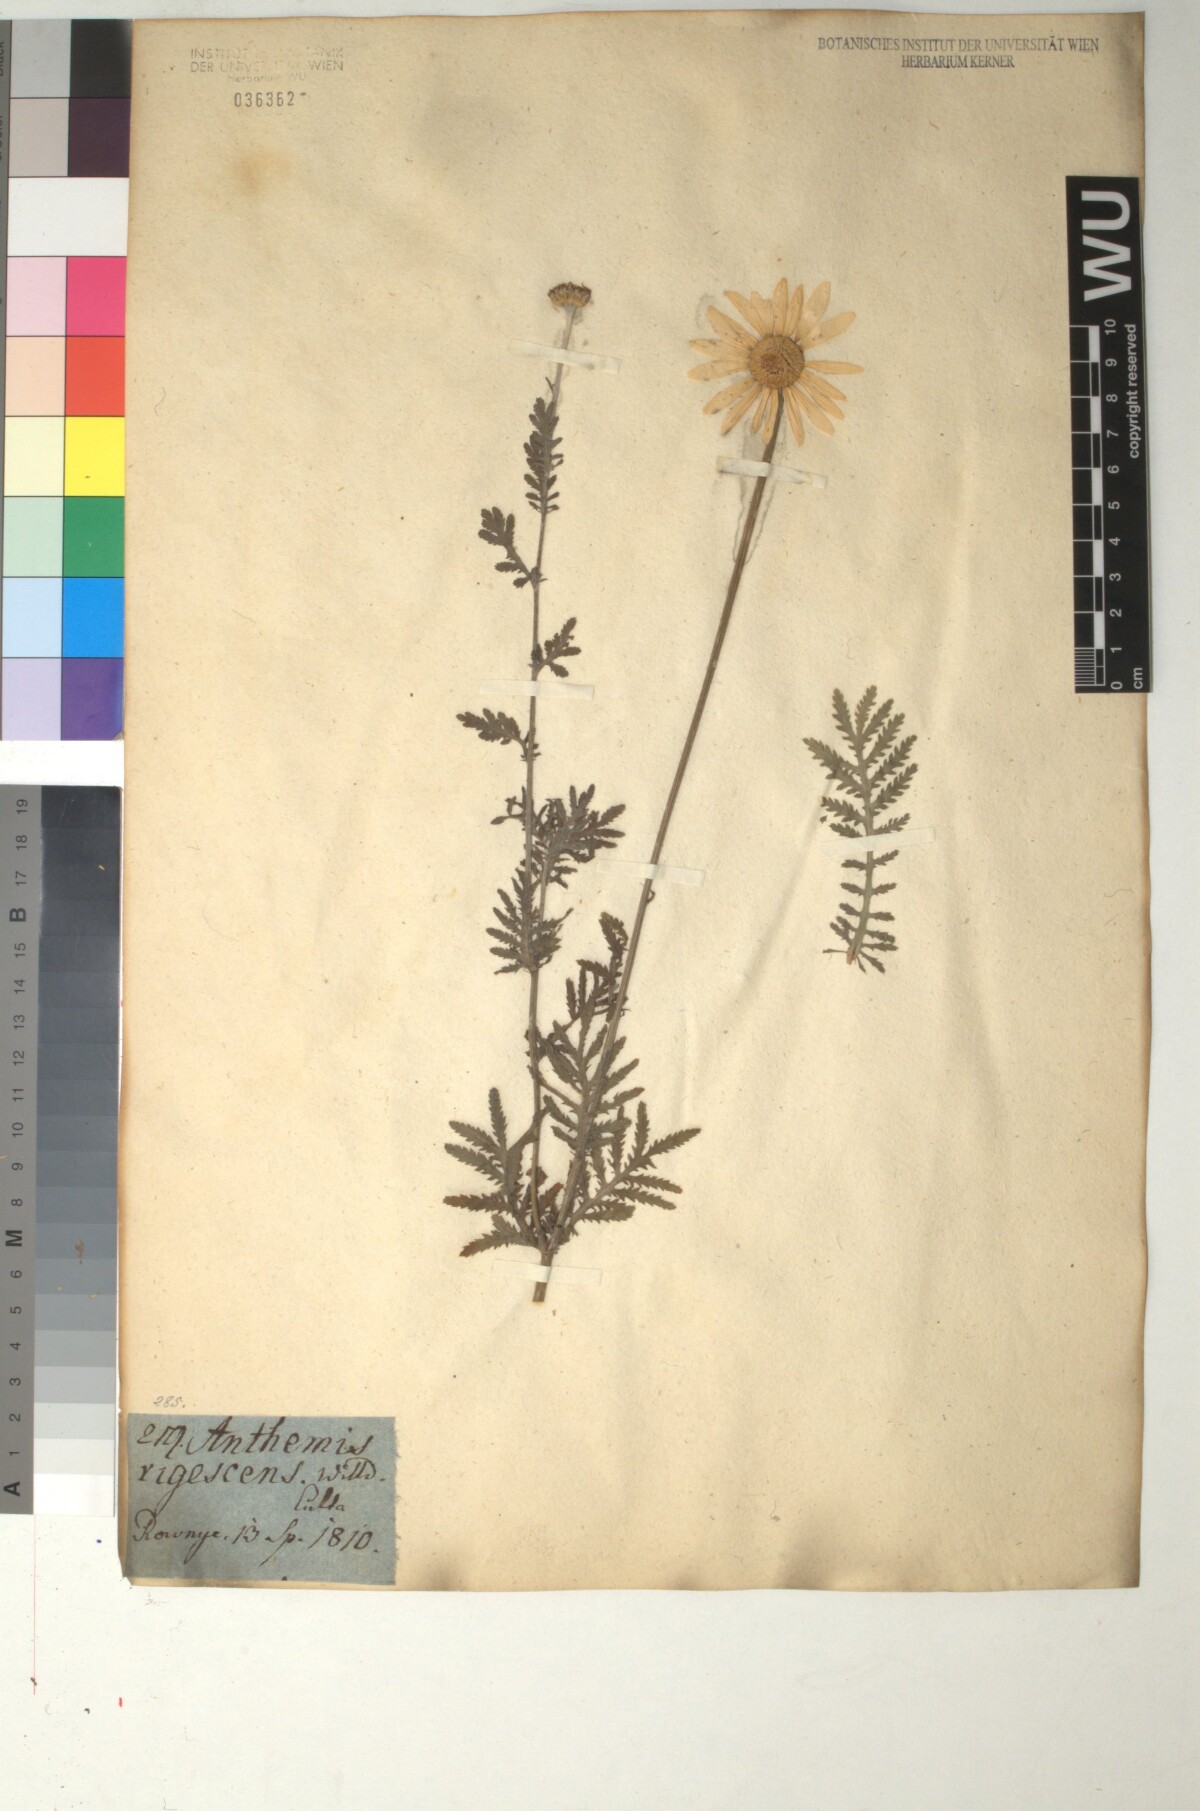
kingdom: Plantae
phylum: Tracheophyta
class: Magnoliopsida
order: Asterales
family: Asteraceae
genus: Cota
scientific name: Cota macrantha
